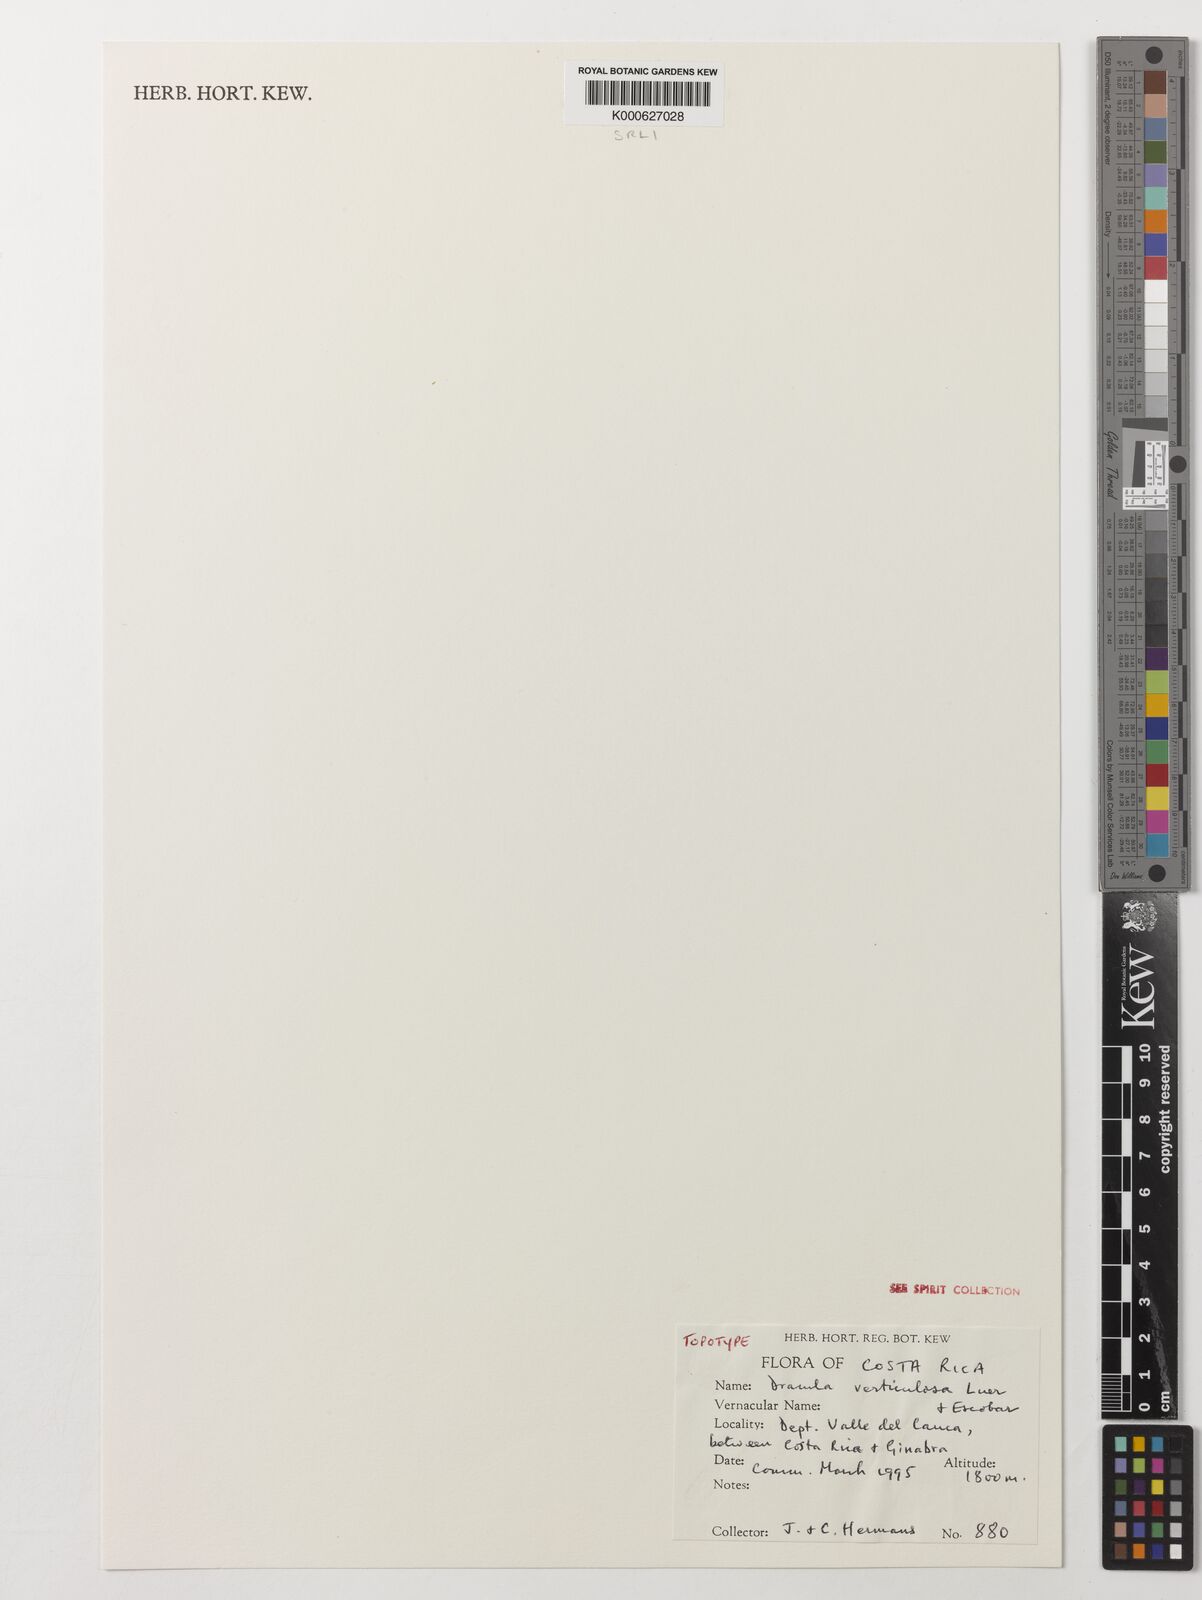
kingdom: Plantae
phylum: Tracheophyta
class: Liliopsida
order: Asparagales
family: Orchidaceae
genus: Dracula
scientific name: Dracula verticulosa
